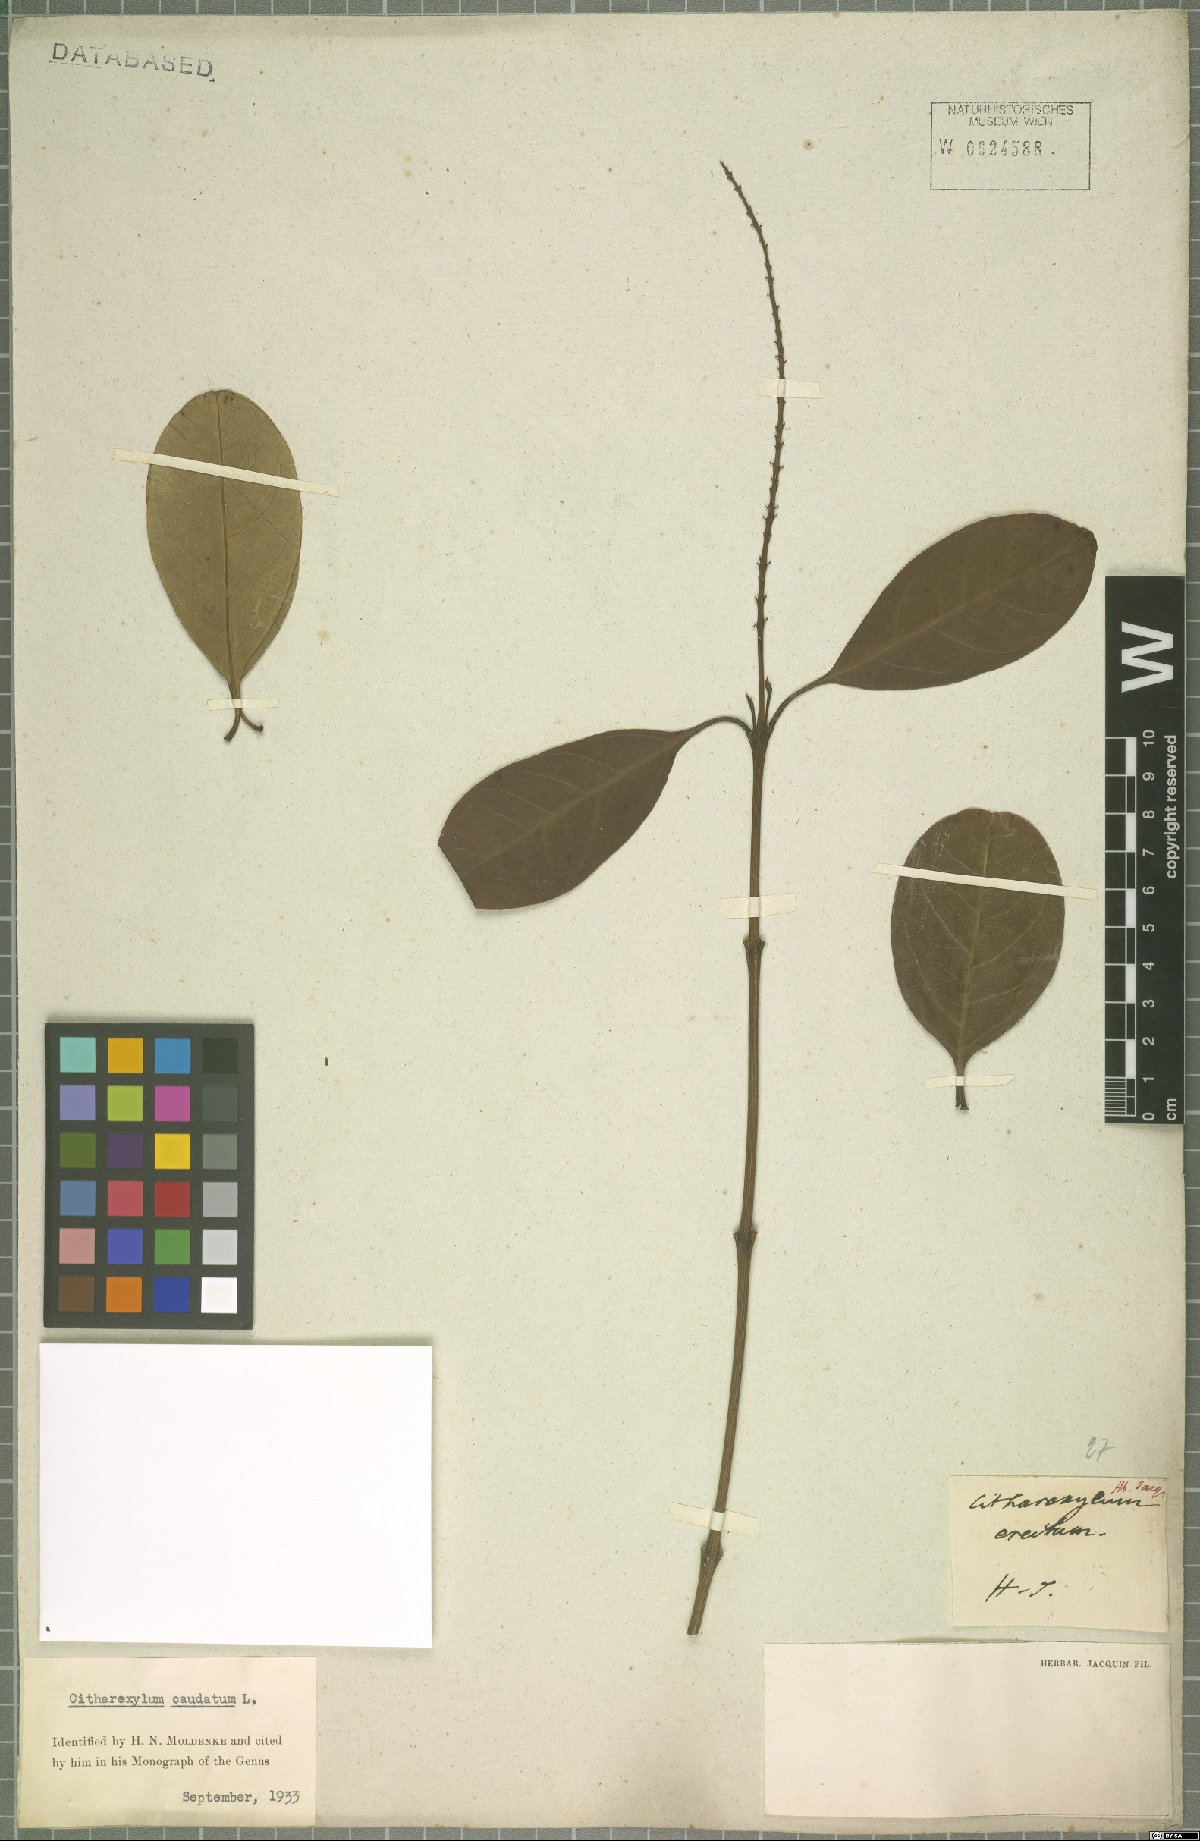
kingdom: Plantae
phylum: Tracheophyta
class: Magnoliopsida
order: Lamiales
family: Verbenaceae
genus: Citharexylum
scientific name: Citharexylum caudatum
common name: Fiddlewood
